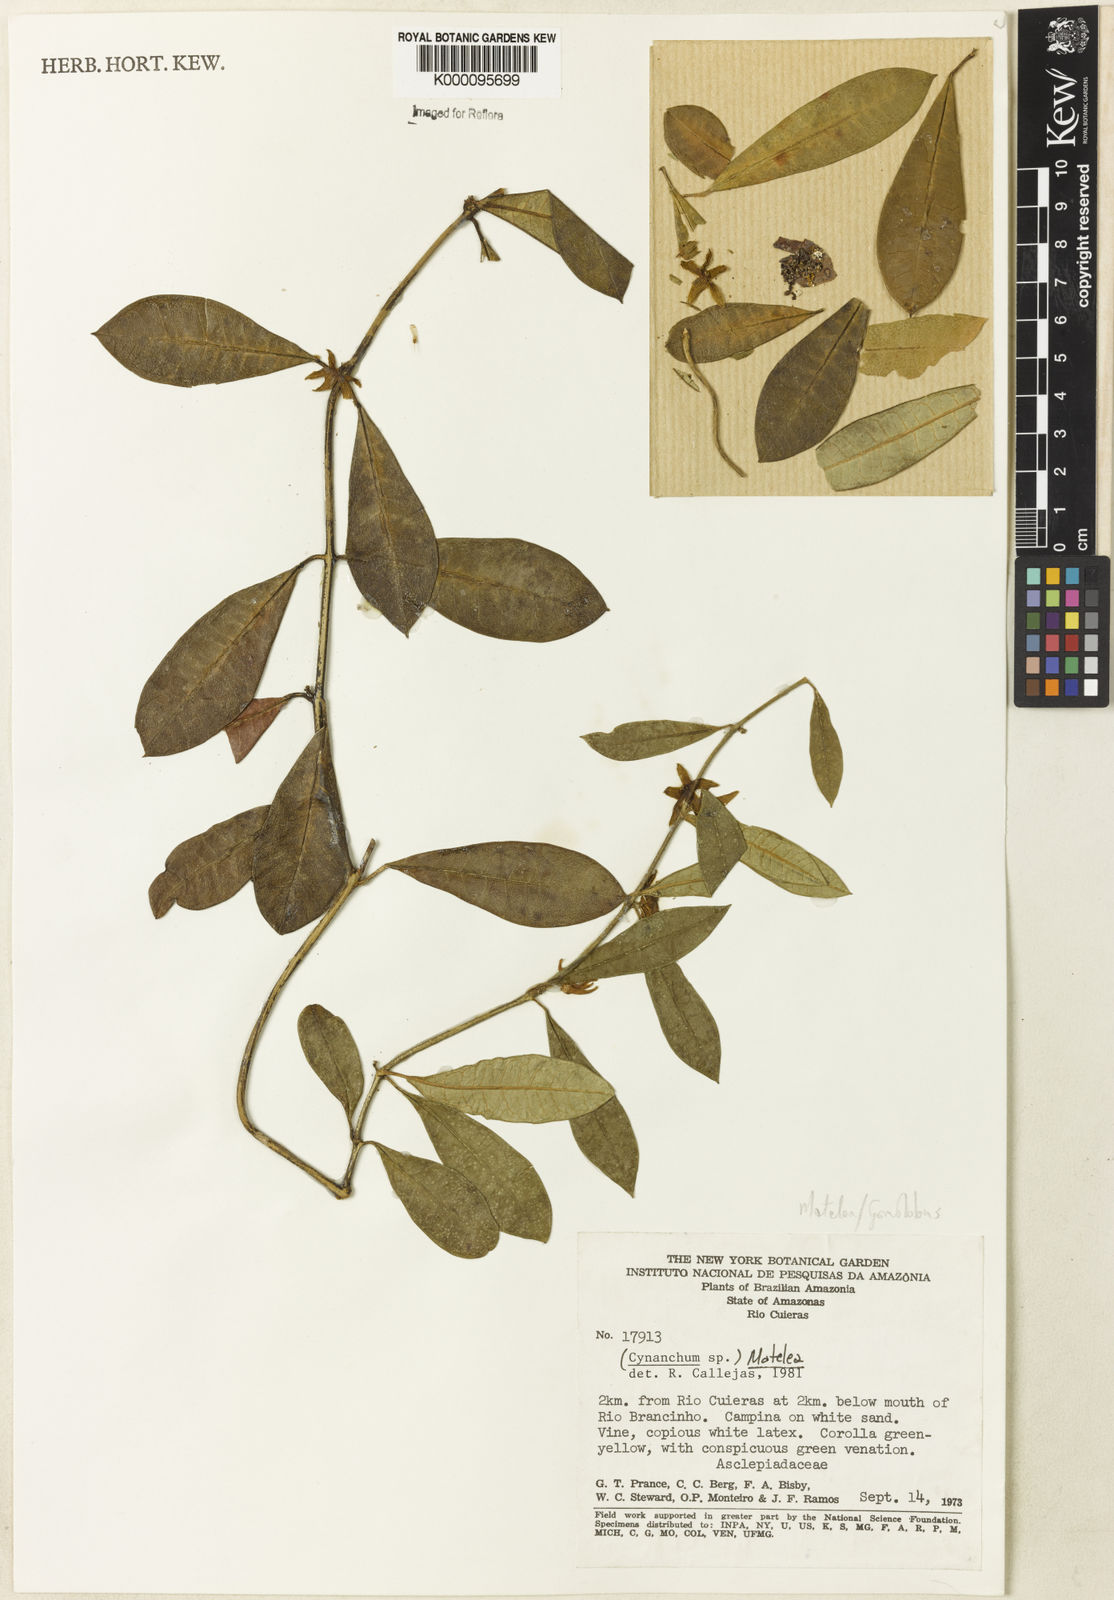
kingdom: Plantae
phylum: Tracheophyta
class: Magnoliopsida
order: Gentianales
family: Apocynaceae
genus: Matelea
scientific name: Matelea
